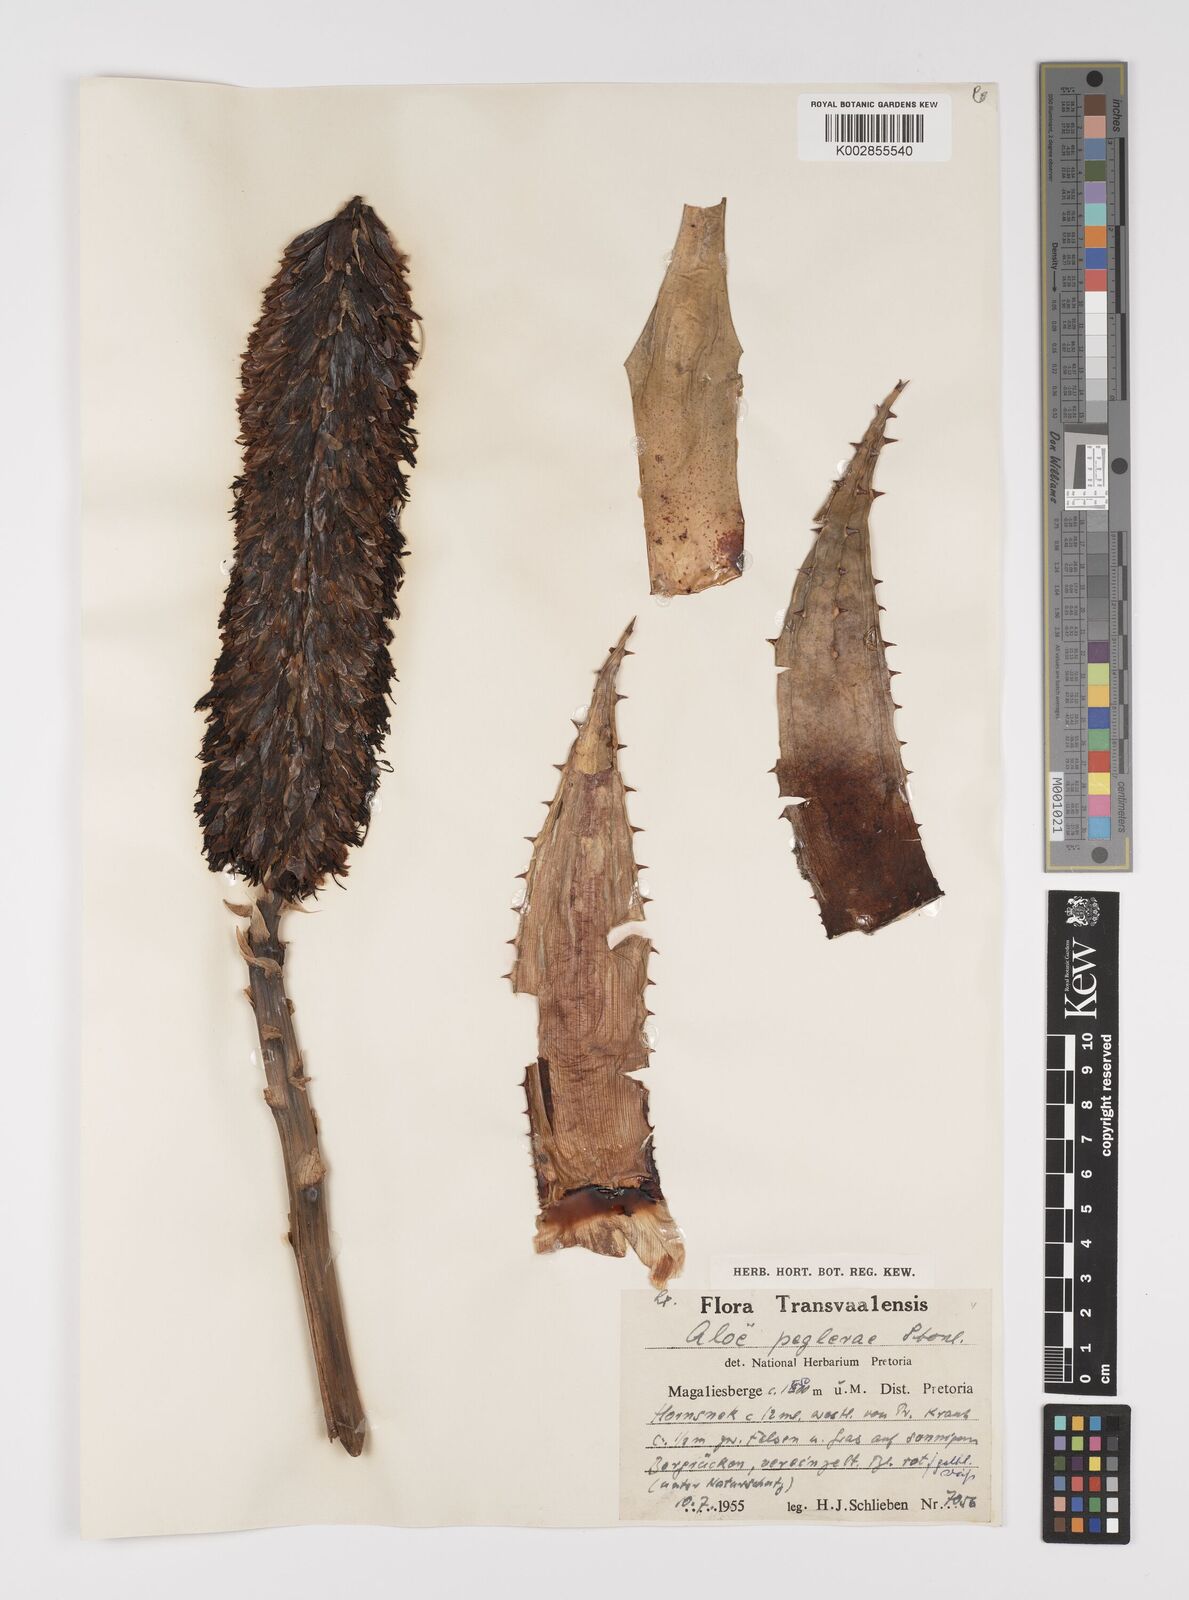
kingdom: Plantae
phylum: Tracheophyta
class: Liliopsida
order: Asparagales
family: Asphodelaceae
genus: Aloe
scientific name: Aloe peglerae
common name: Red-hot poker
